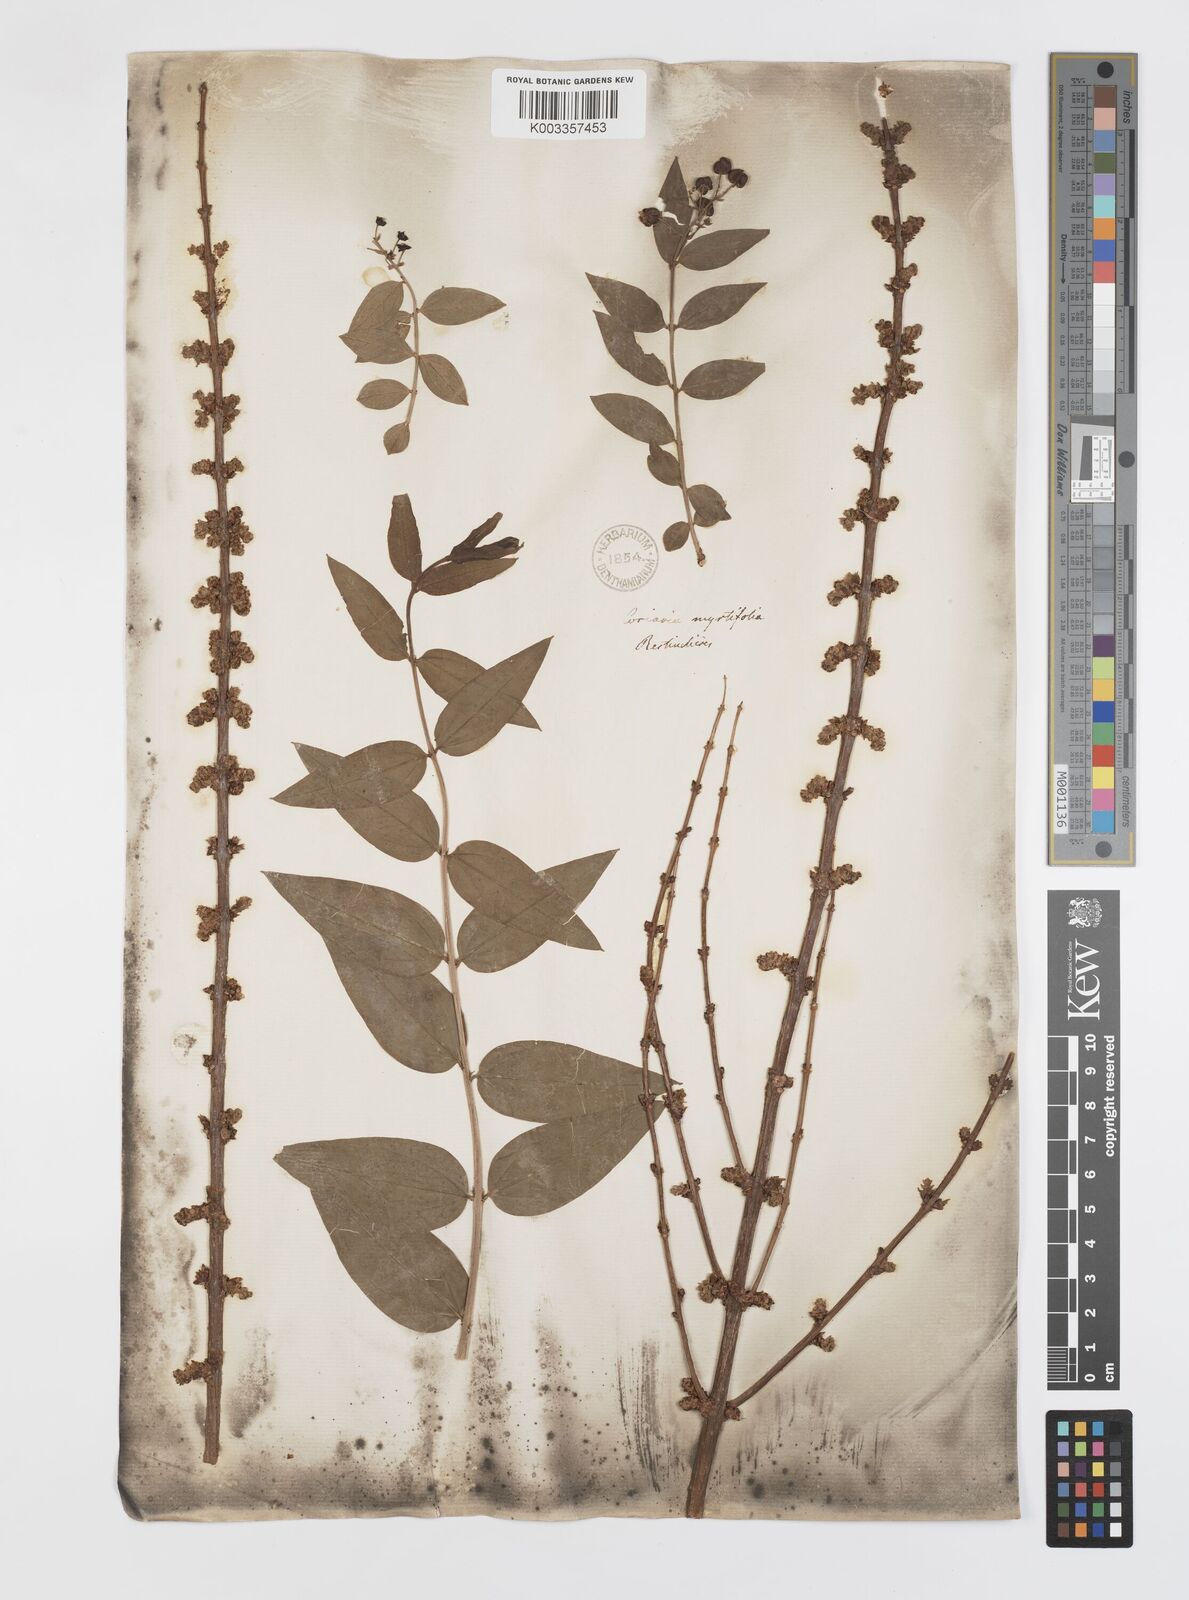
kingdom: Plantae
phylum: Tracheophyta
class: Magnoliopsida
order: Cucurbitales
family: Coriariaceae
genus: Coriaria
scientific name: Coriaria myrtifolia
